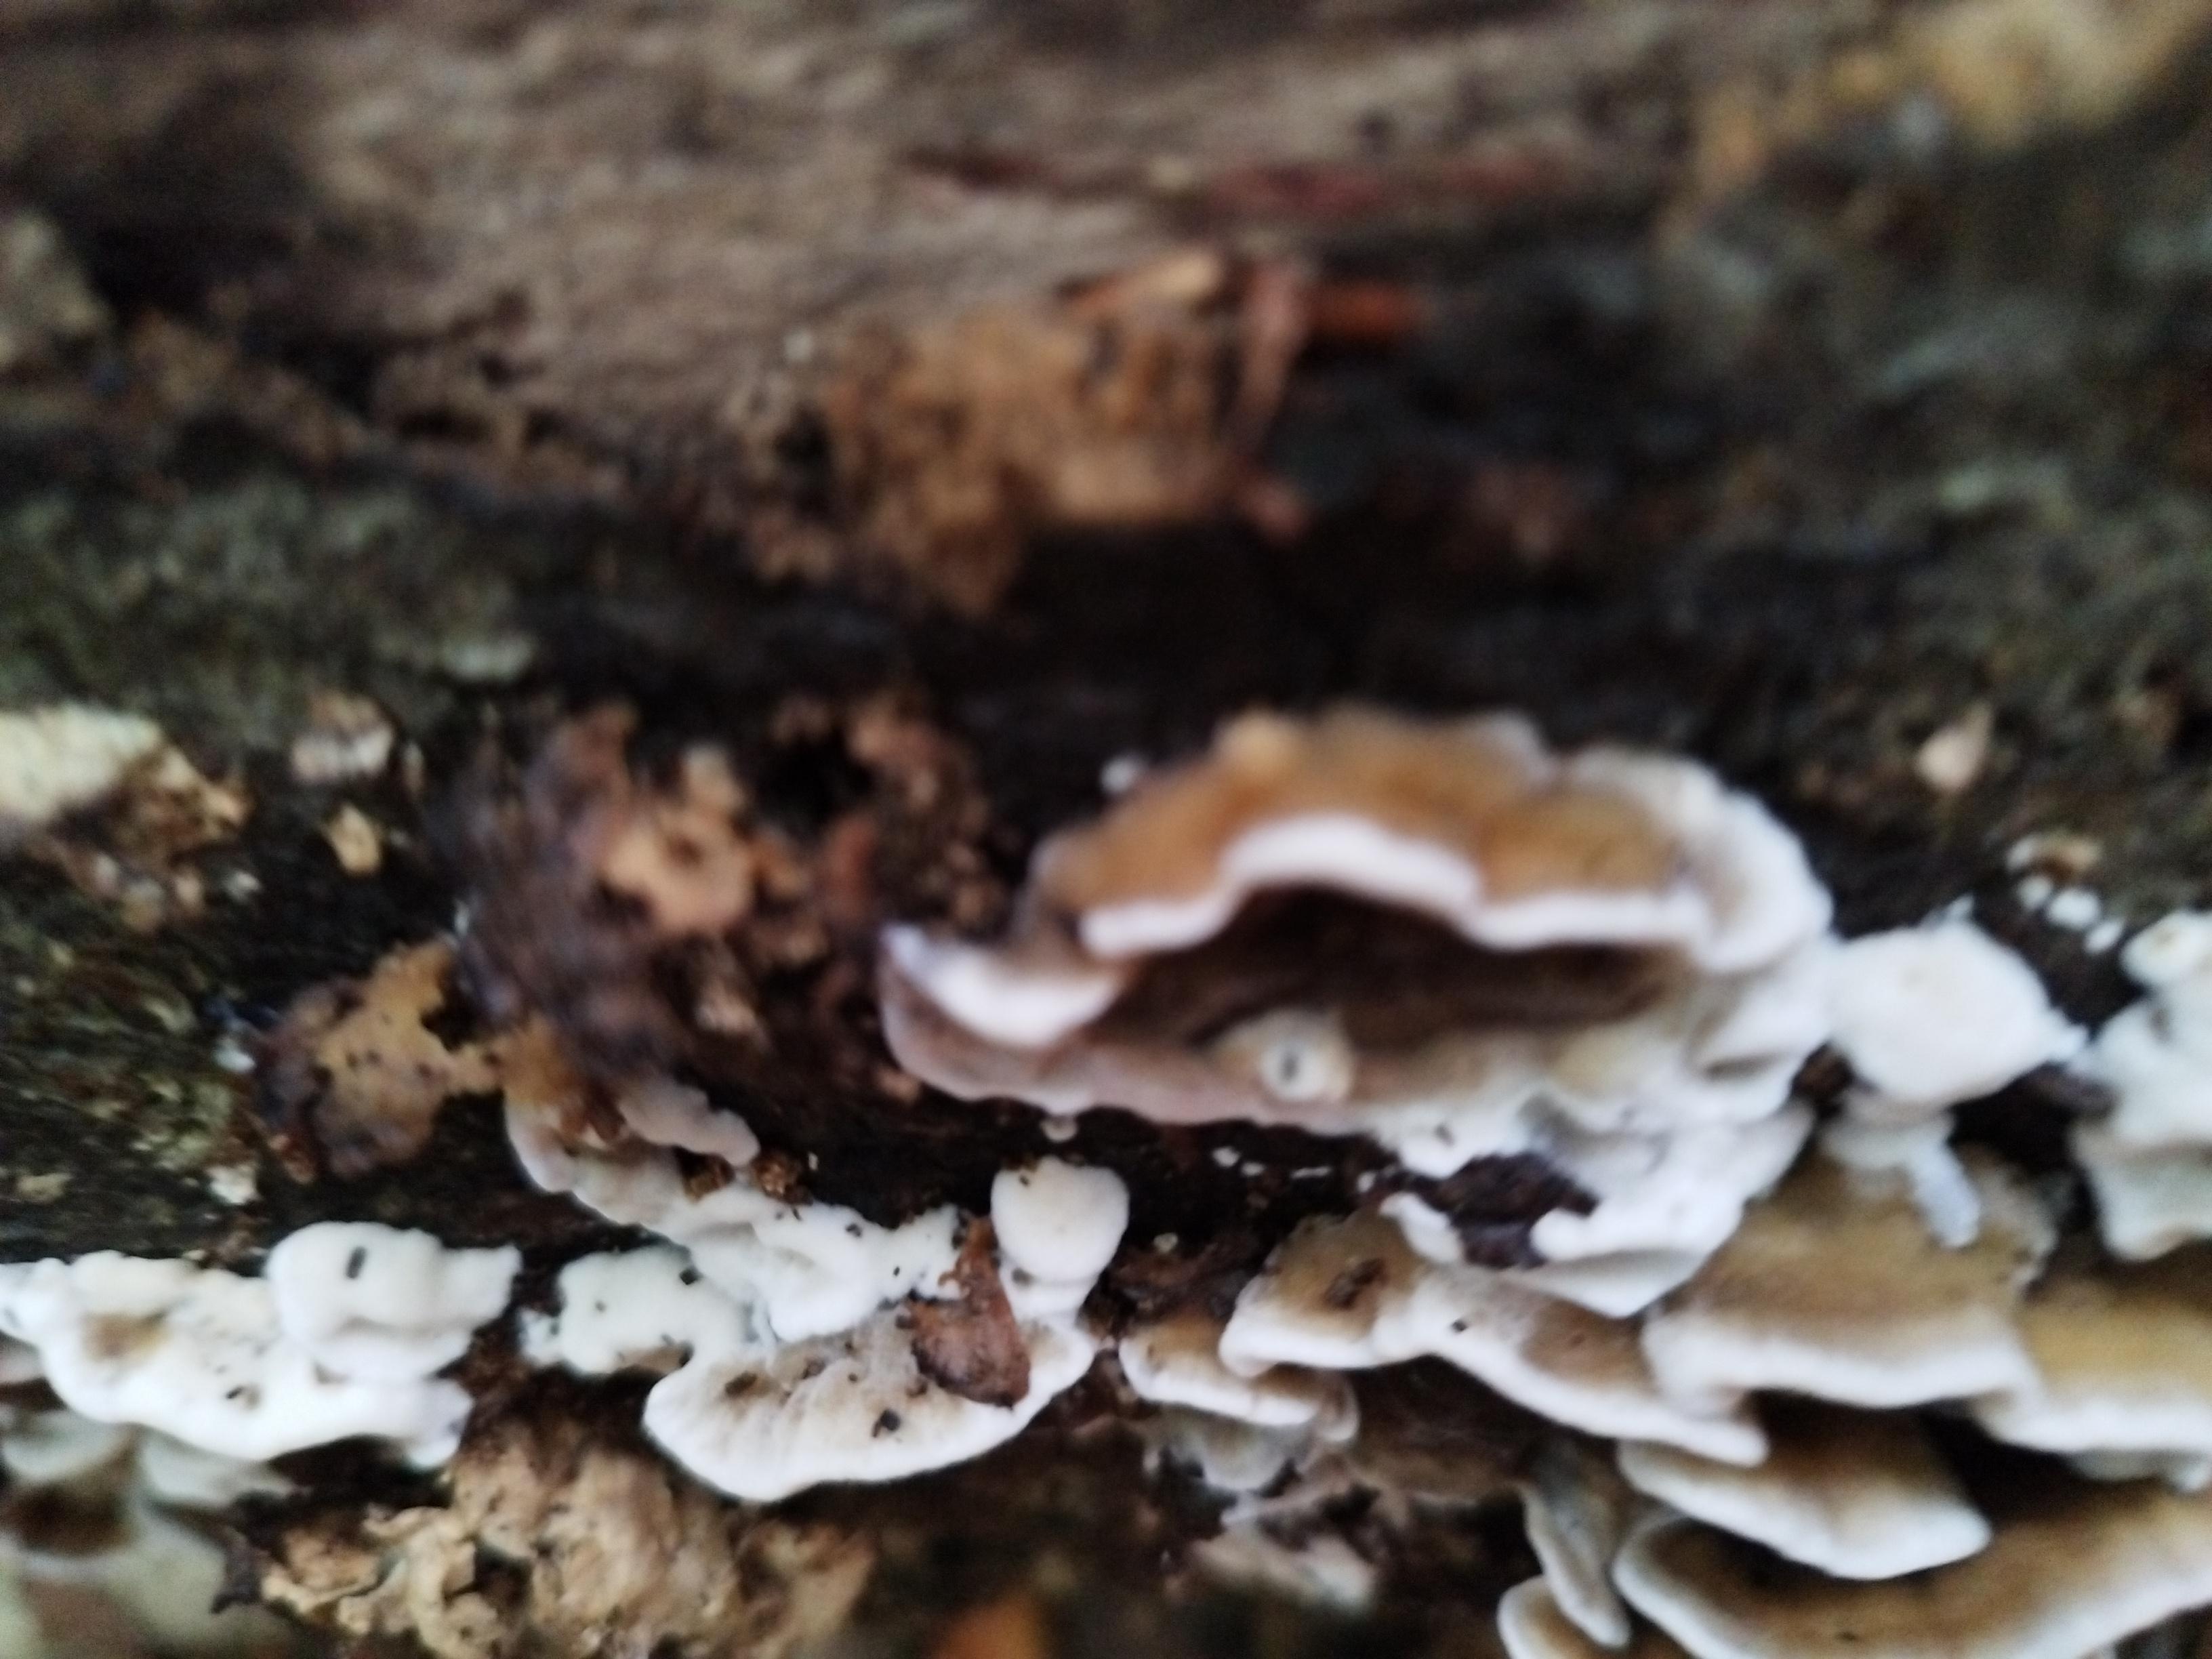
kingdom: Fungi
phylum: Basidiomycota
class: Agaricomycetes
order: Agaricales
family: Cyphellaceae
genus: Chondrostereum
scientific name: Chondrostereum purpureum
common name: purpurlædersvamp
